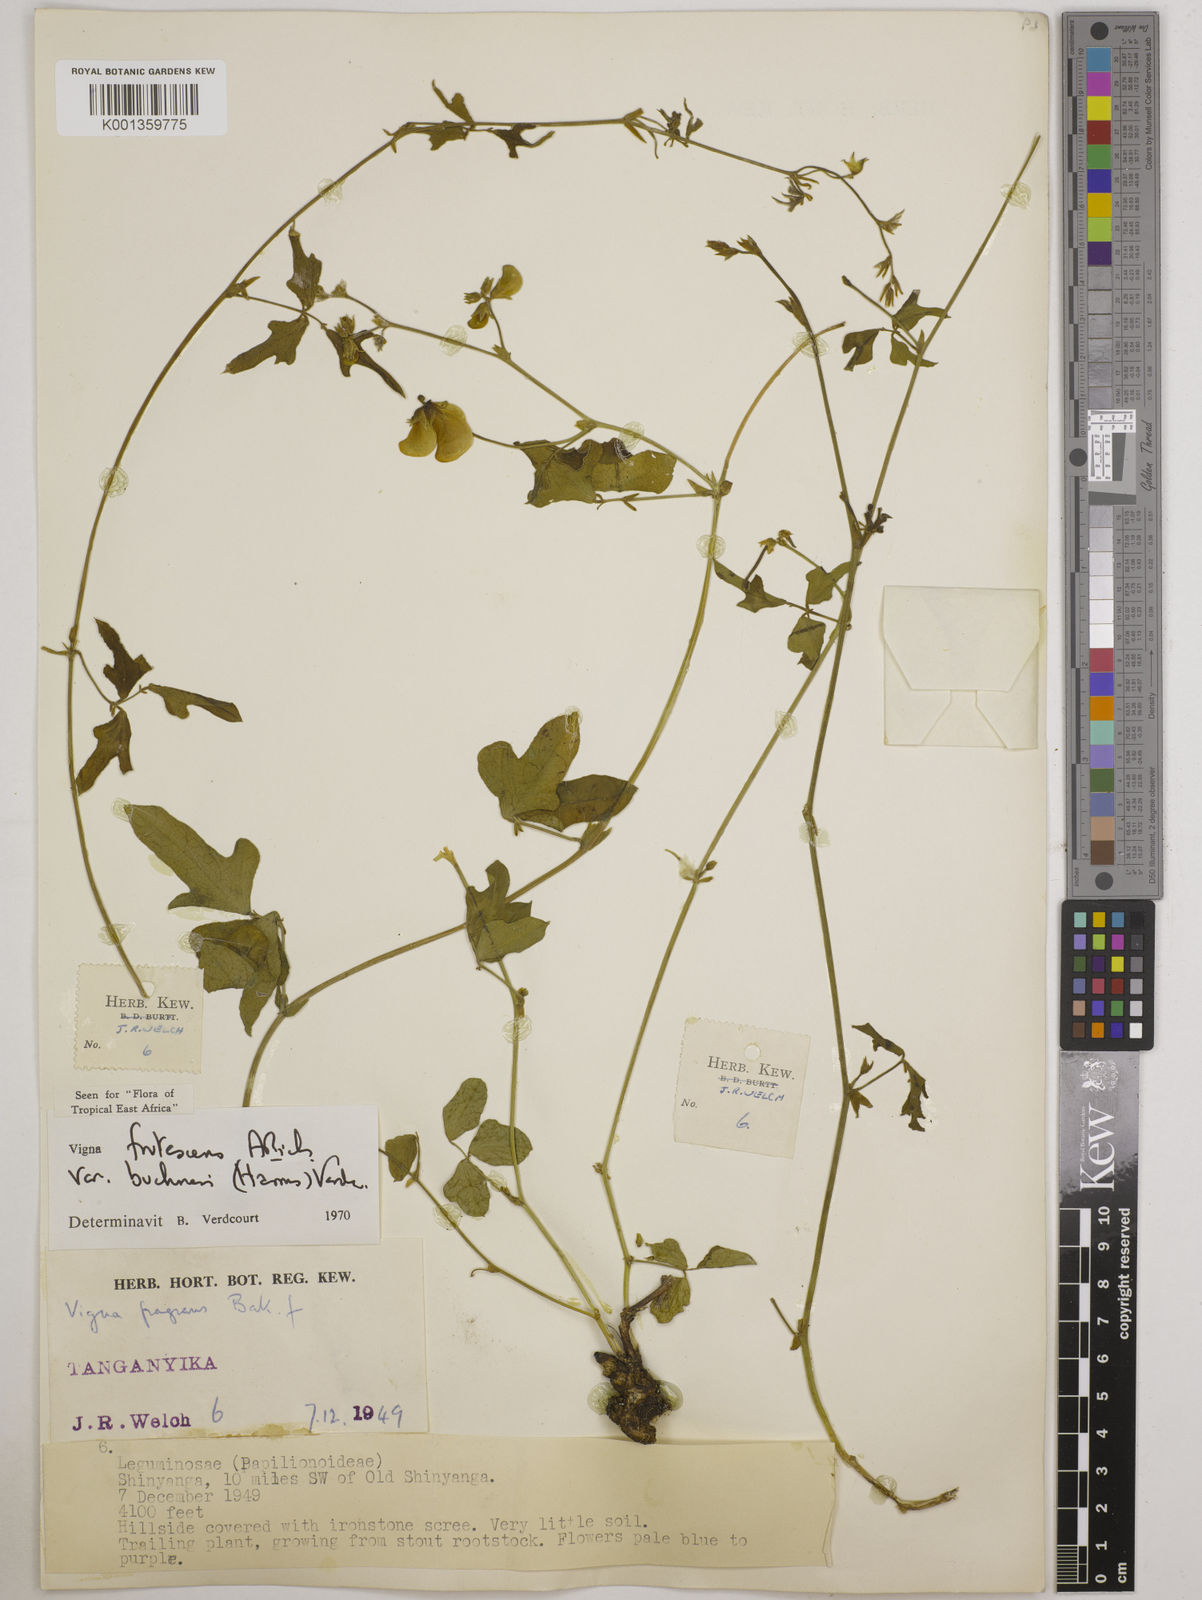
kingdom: Plantae
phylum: Tracheophyta
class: Magnoliopsida
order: Fabales
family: Fabaceae
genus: Vigna
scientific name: Vigna
